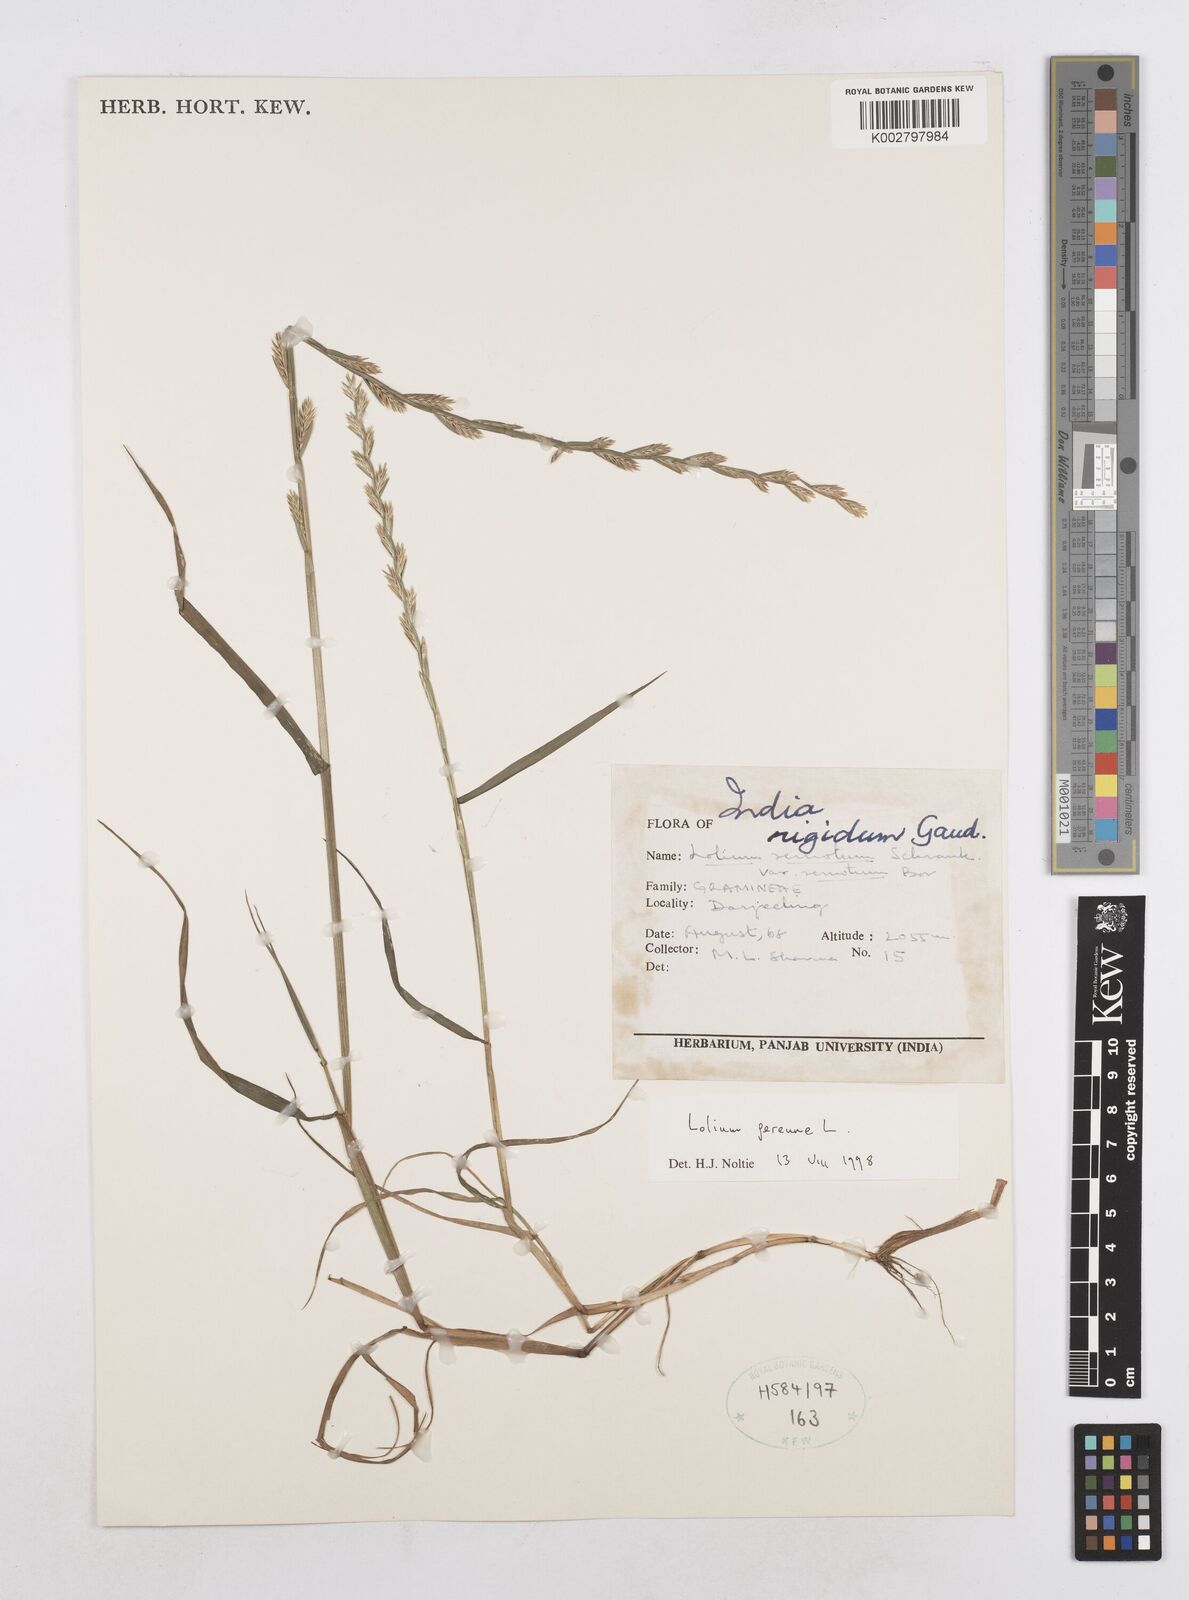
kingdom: Plantae
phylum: Tracheophyta
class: Liliopsida
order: Poales
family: Poaceae
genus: Lolium
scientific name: Lolium perenne
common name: Perennial ryegrass
